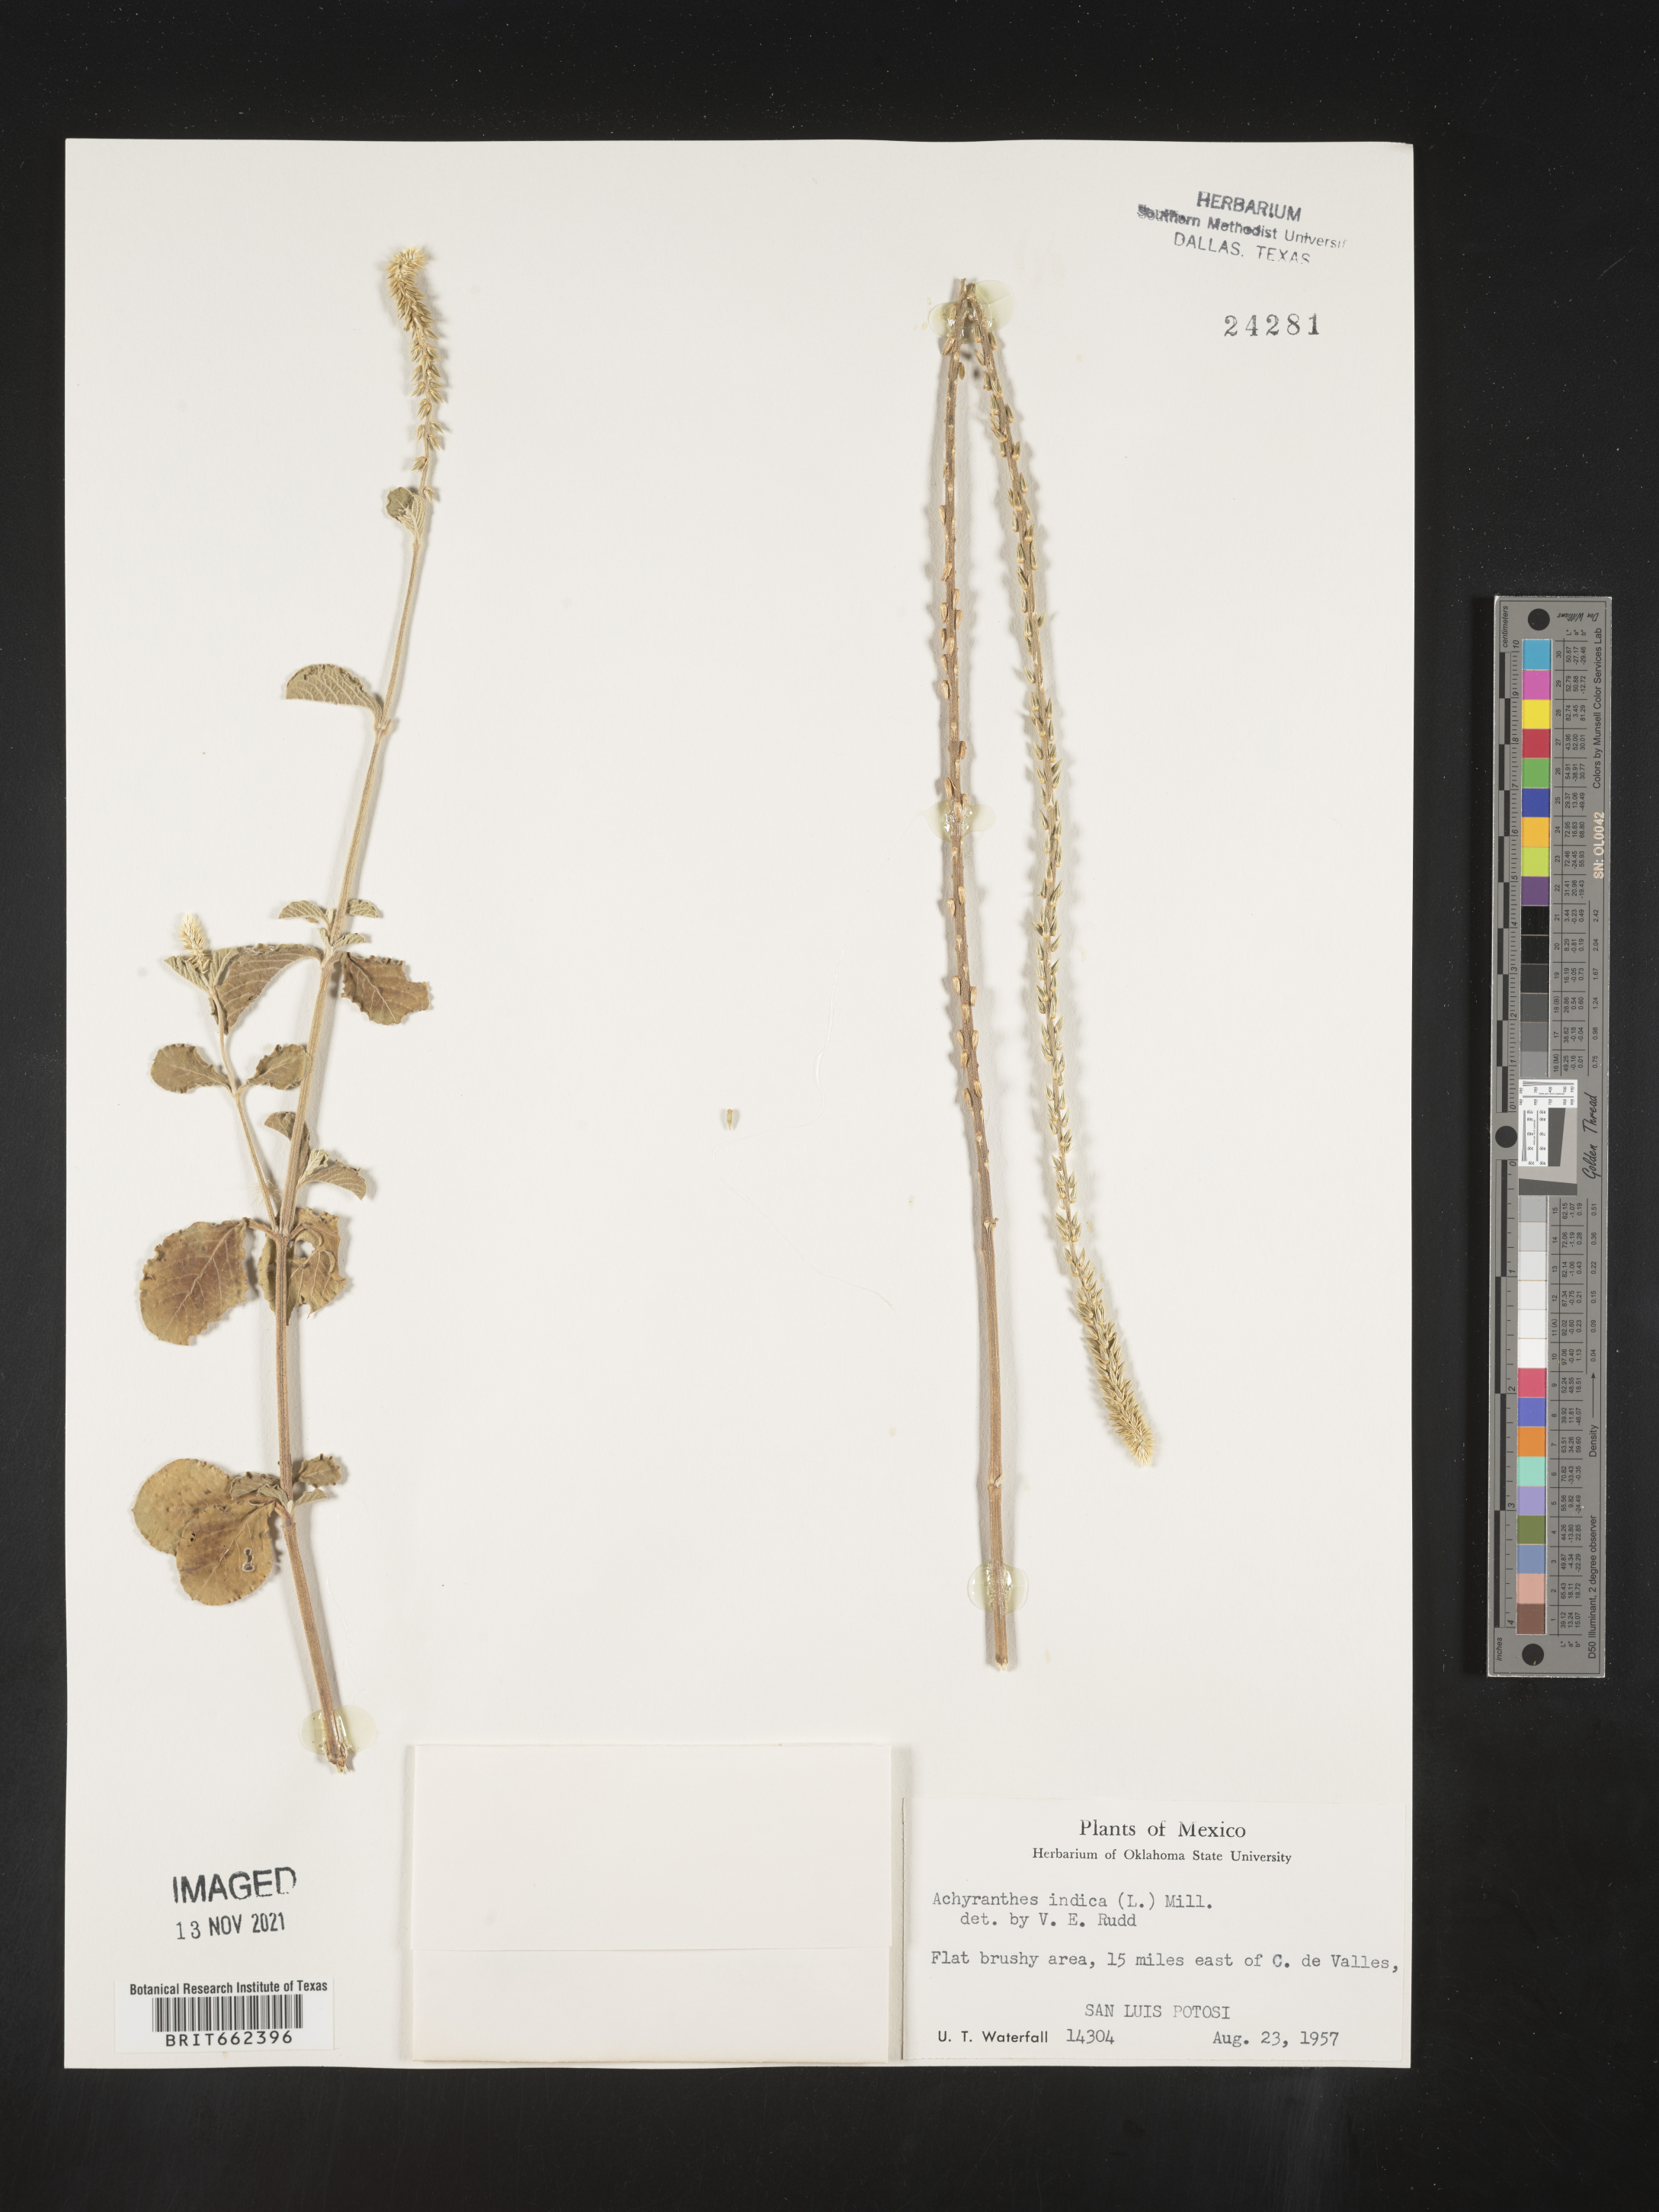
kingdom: Plantae
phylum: Tracheophyta
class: Magnoliopsida
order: Caryophyllales
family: Amaranthaceae
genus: Achyranthes
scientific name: Achyranthes
